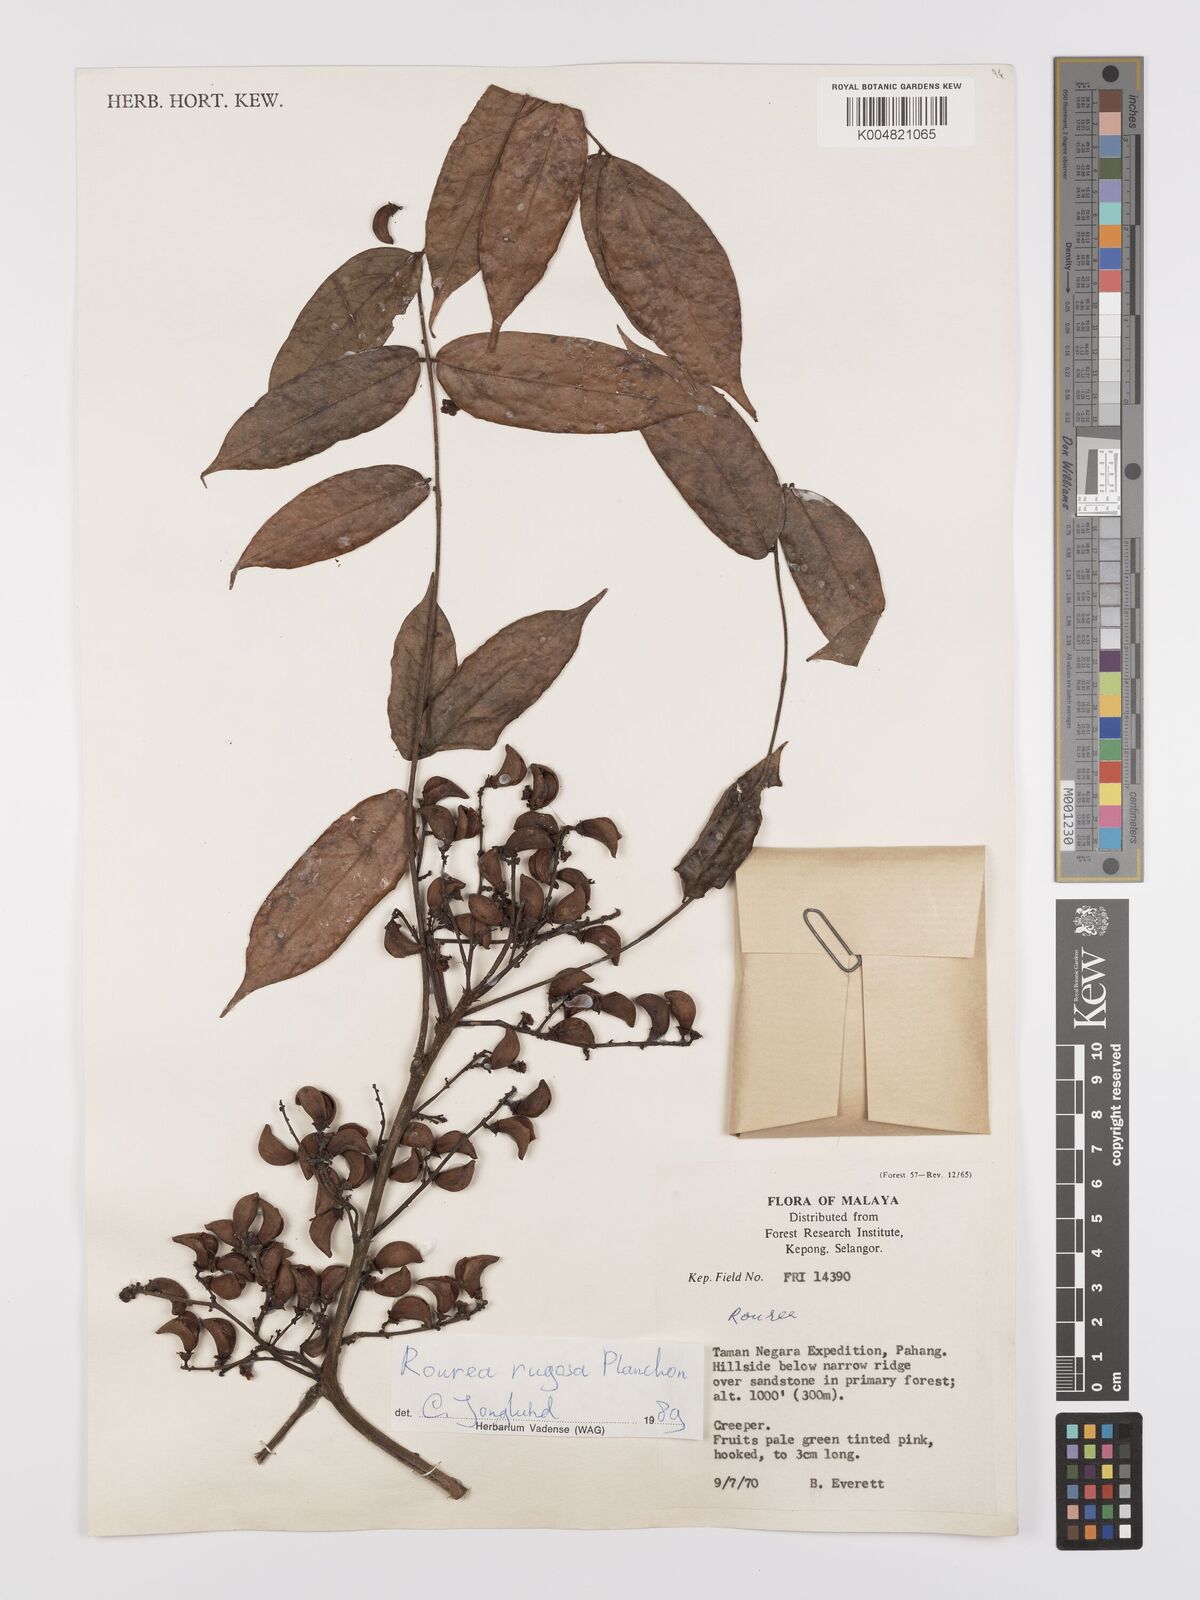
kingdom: Plantae
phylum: Tracheophyta
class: Magnoliopsida
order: Oxalidales
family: Connaraceae
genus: Rourea
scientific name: Rourea rugosa
